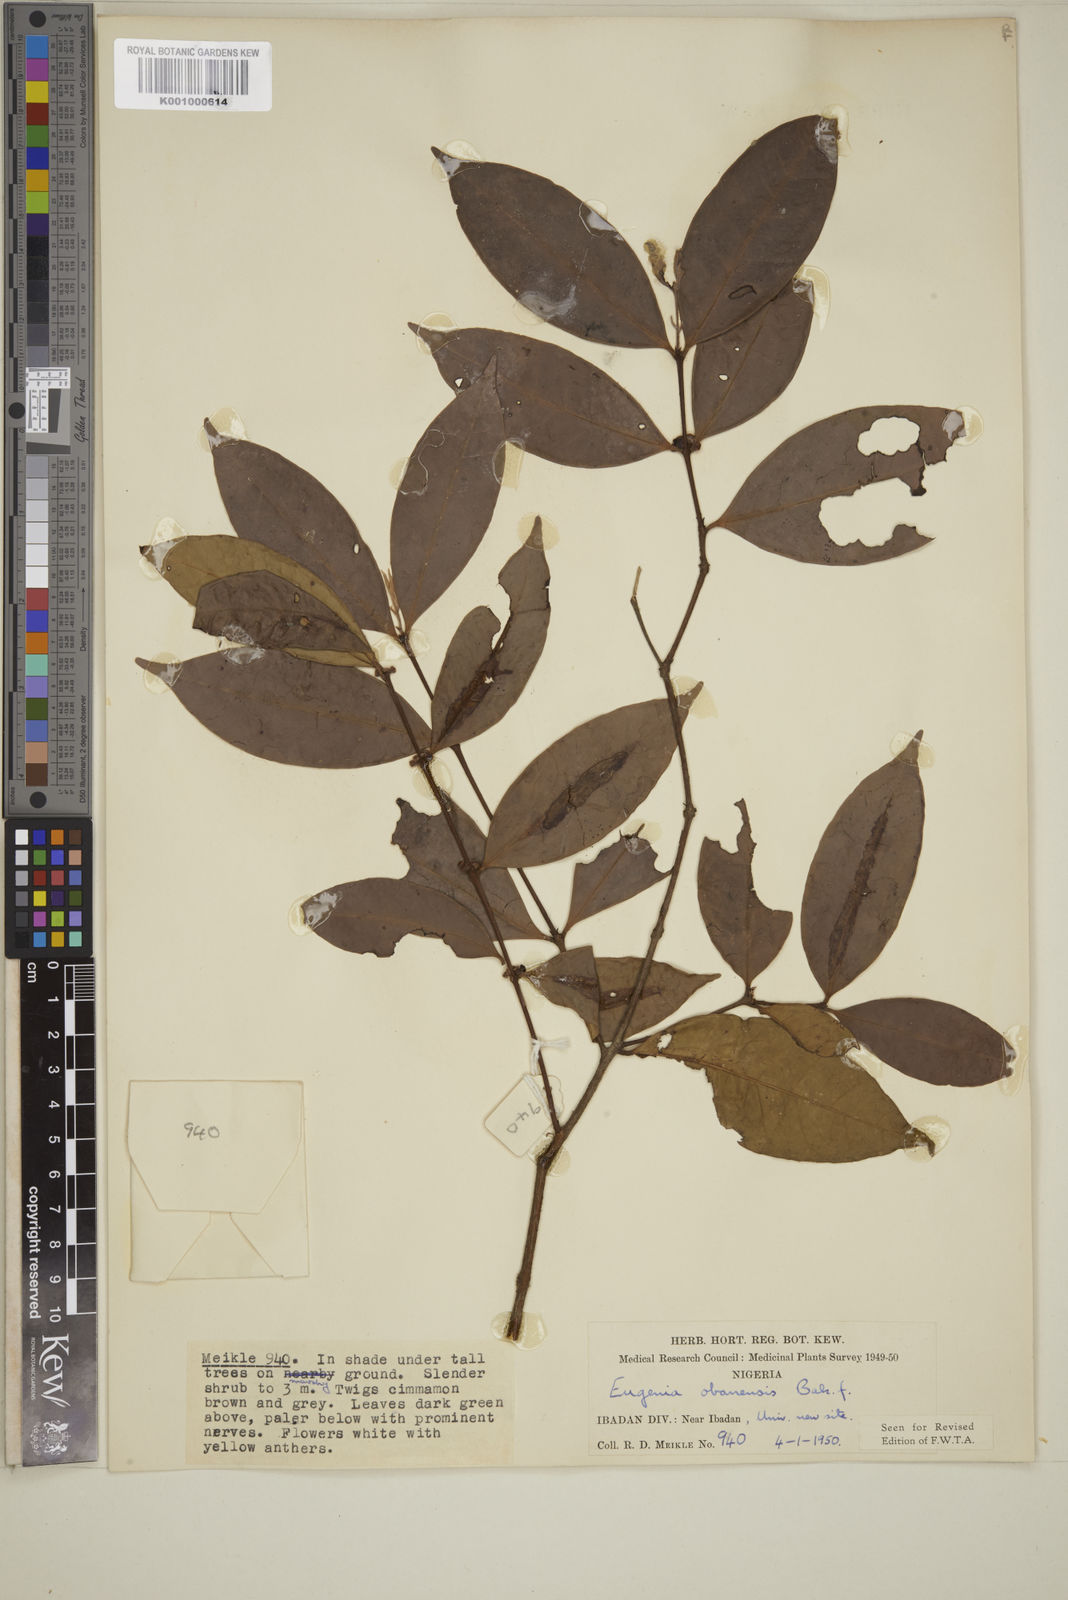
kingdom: Plantae
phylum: Tracheophyta
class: Magnoliopsida
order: Myrtales
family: Myrtaceae
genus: Eugenia
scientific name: Eugenia obanensis
